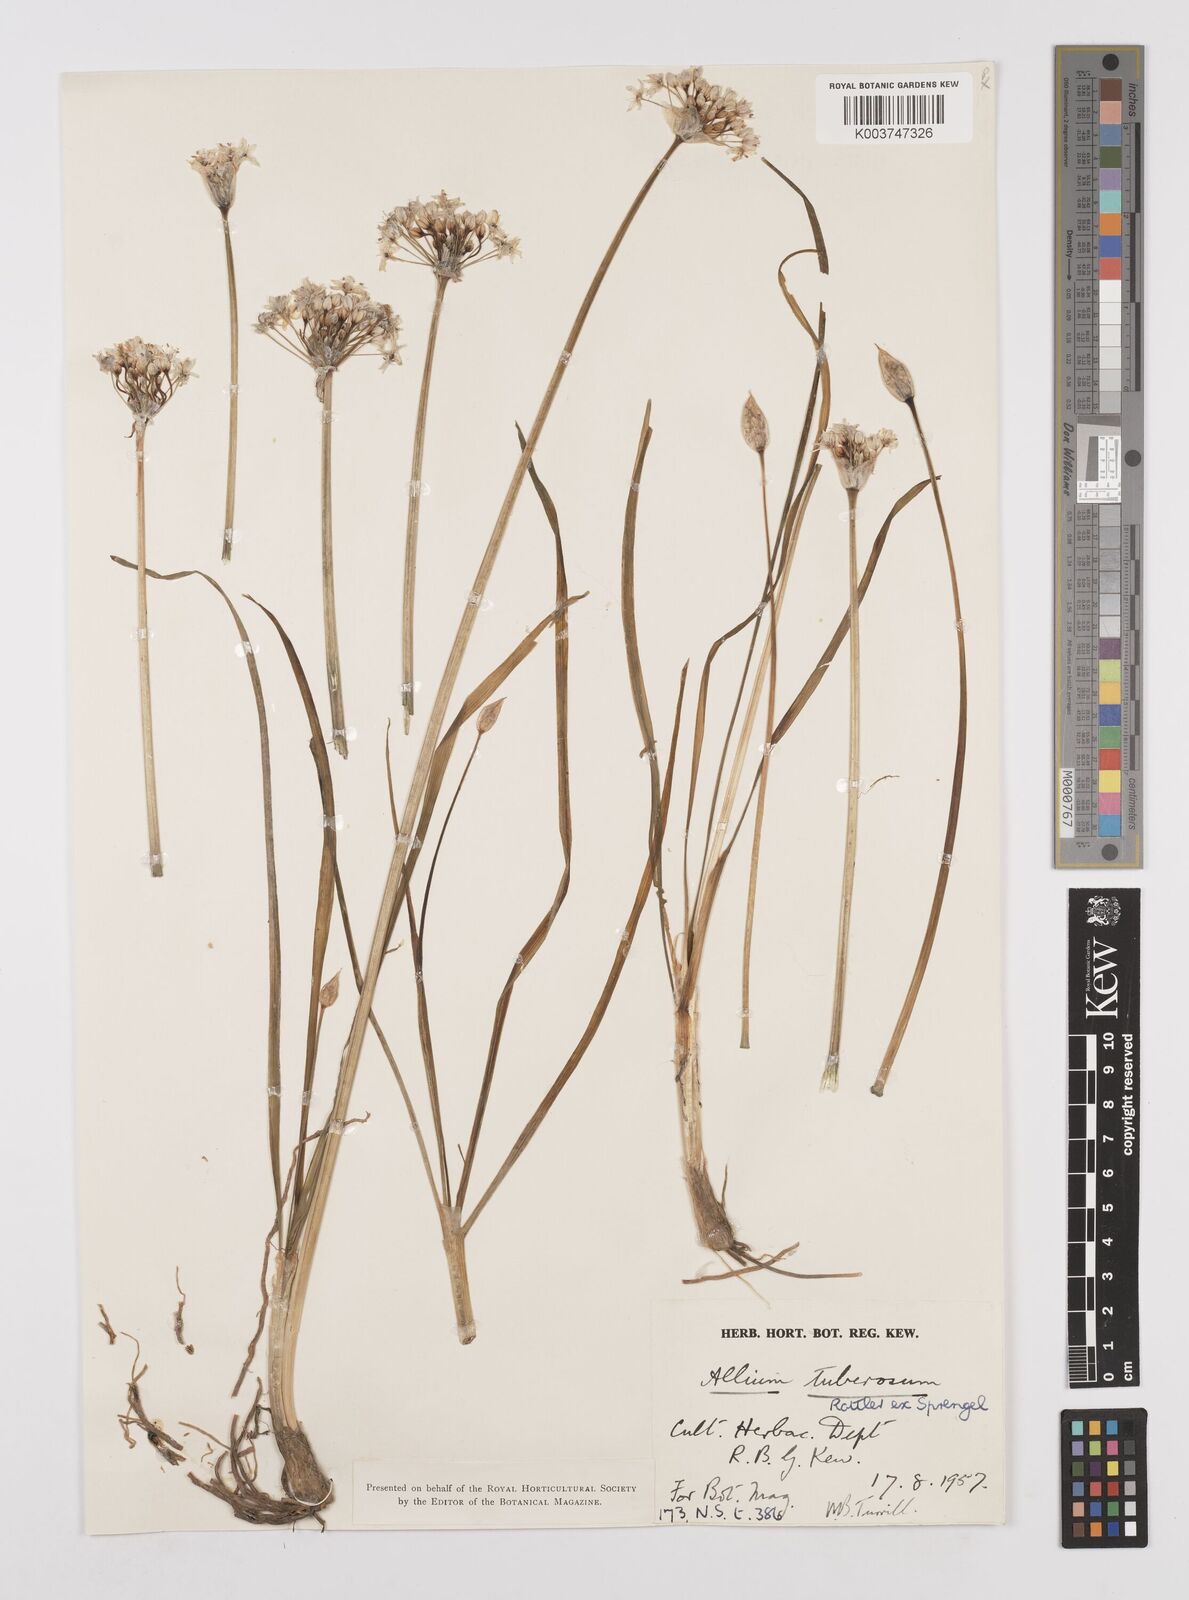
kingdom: Plantae
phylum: Tracheophyta
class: Liliopsida
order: Asparagales
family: Amaryllidaceae
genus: Allium
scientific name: Allium tuberosum
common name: Chinese chives
